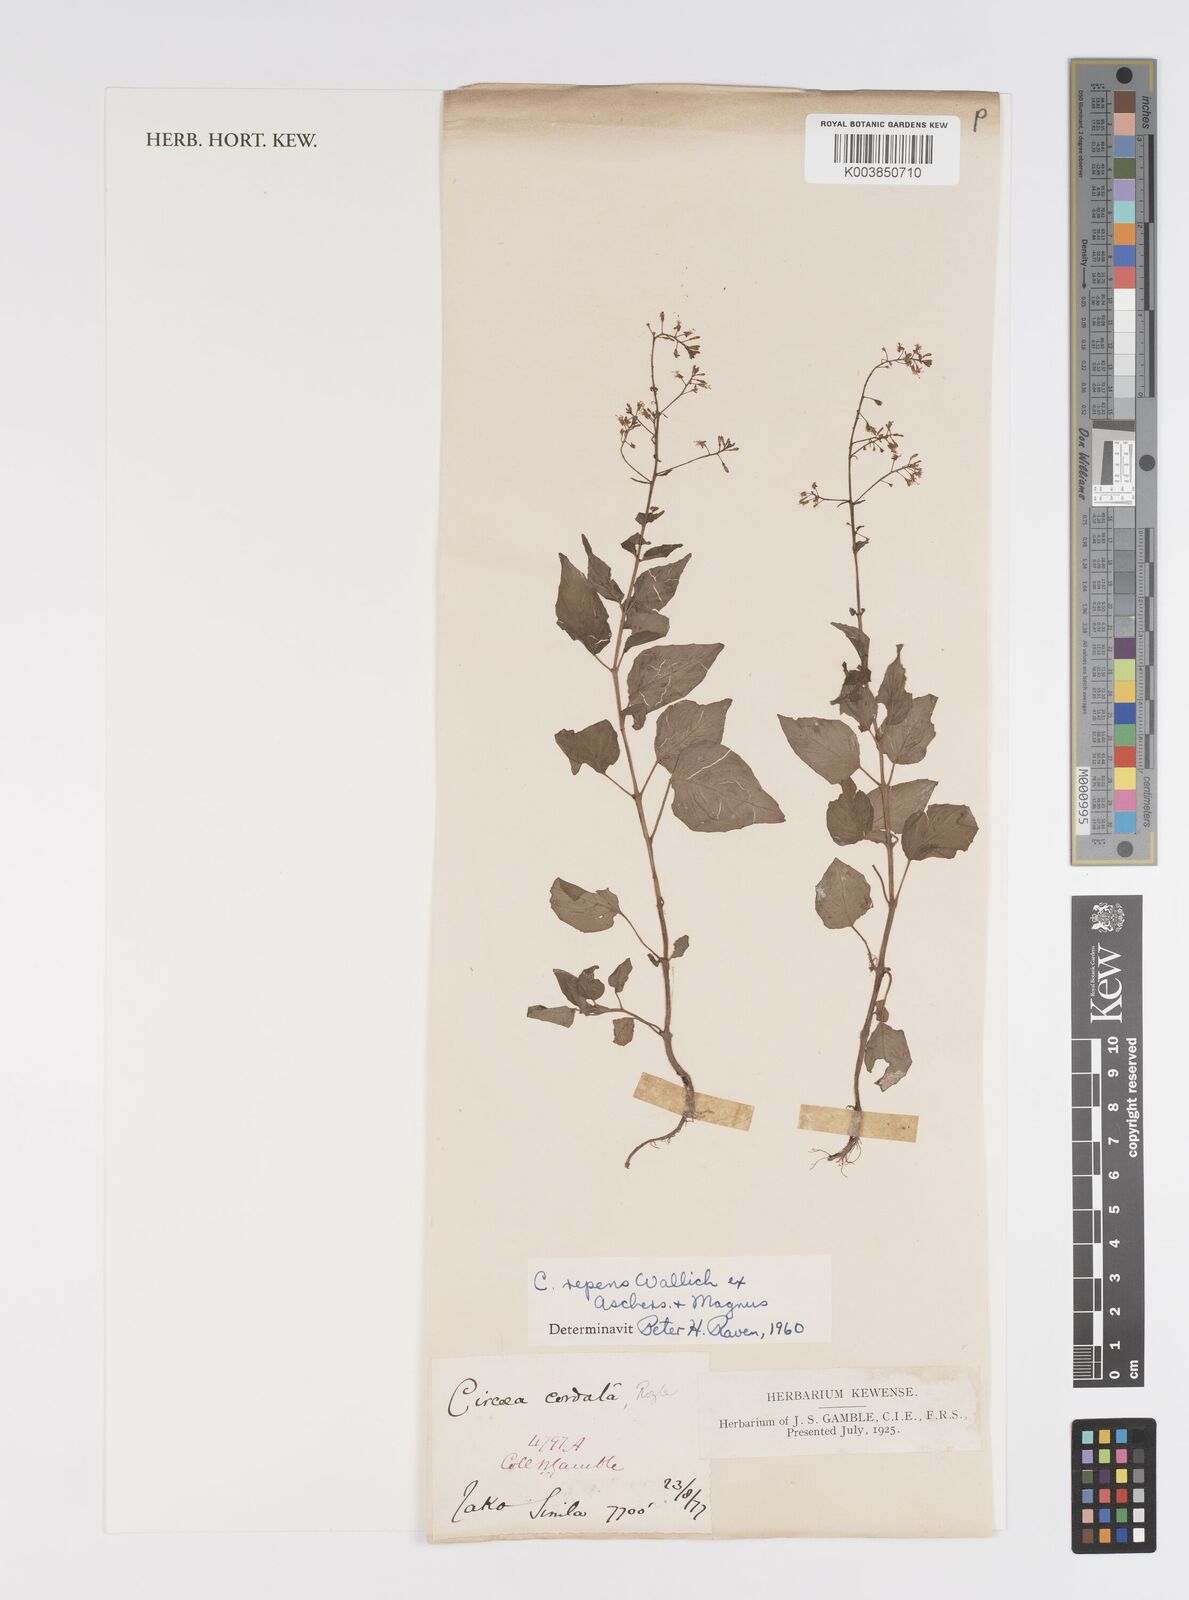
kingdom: Plantae
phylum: Tracheophyta
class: Magnoliopsida
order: Myrtales
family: Onagraceae
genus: Circaea
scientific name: Circaea repens
